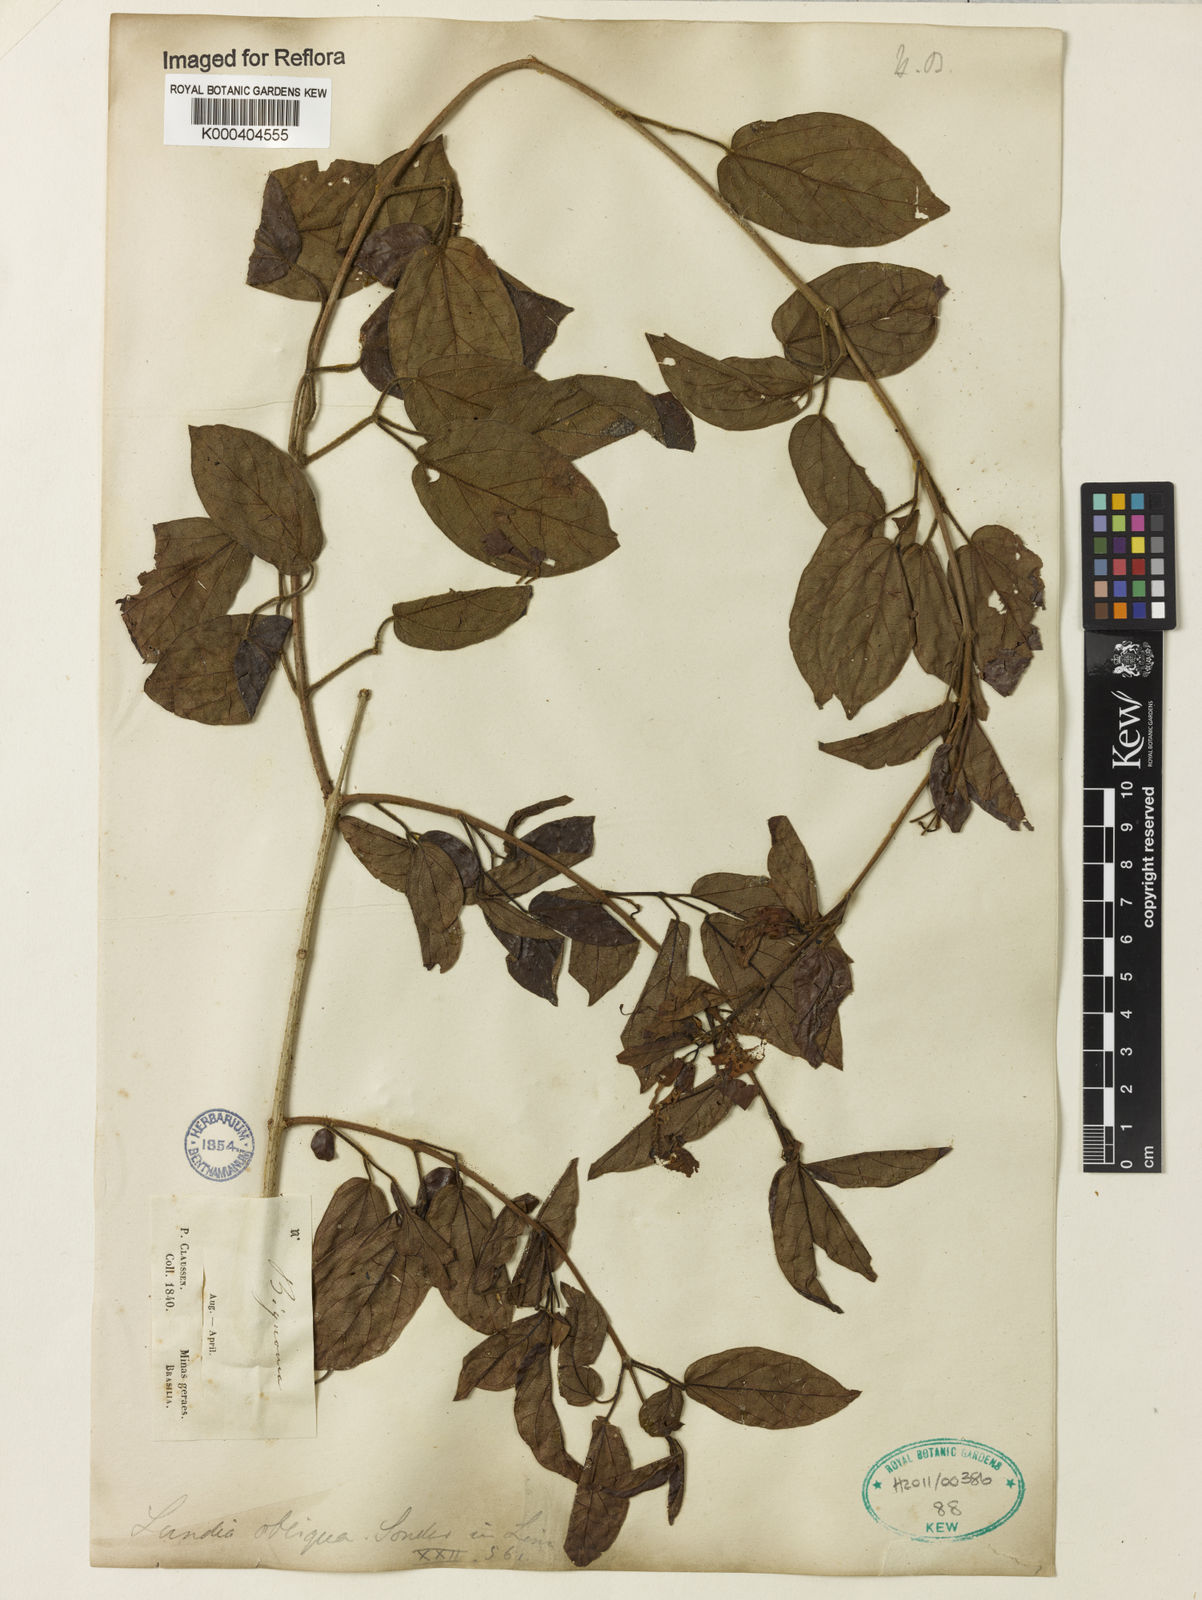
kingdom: Plantae
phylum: Tracheophyta
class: Magnoliopsida
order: Lamiales
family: Bignoniaceae
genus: Lundia
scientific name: Lundia obliqua
